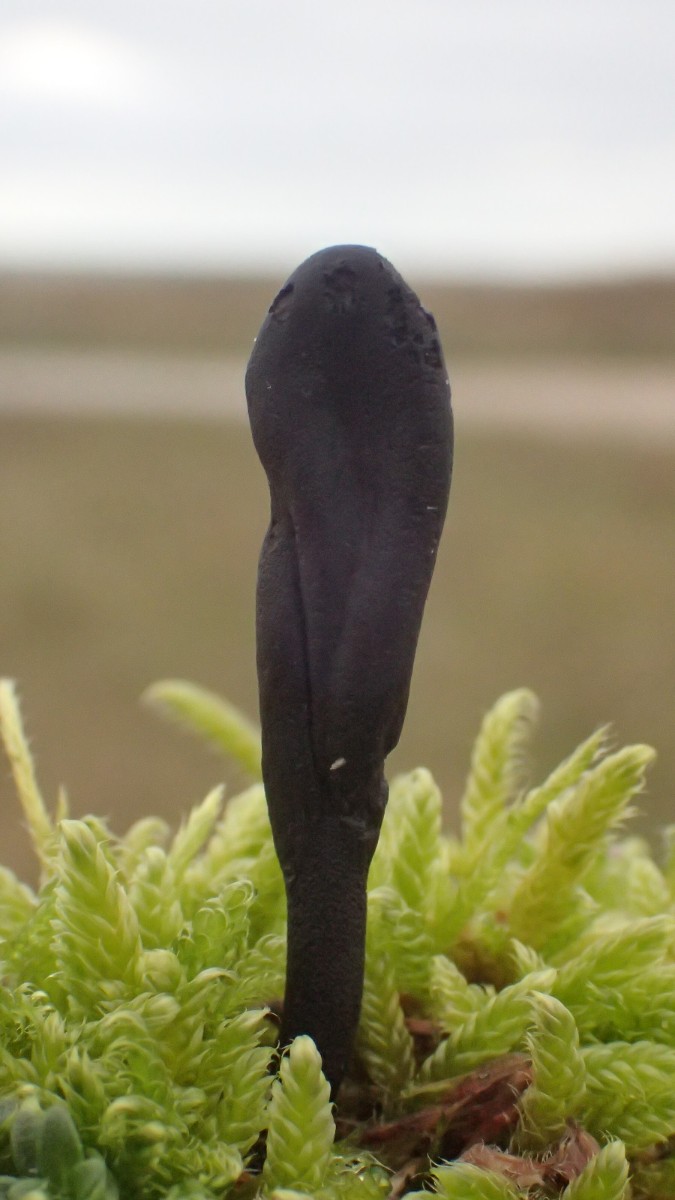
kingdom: Fungi
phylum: Ascomycota
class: Geoglossomycetes
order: Geoglossales
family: Geoglossaceae
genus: Geoglossum
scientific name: Geoglossum starbaeckii
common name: nordlig jordtunge
